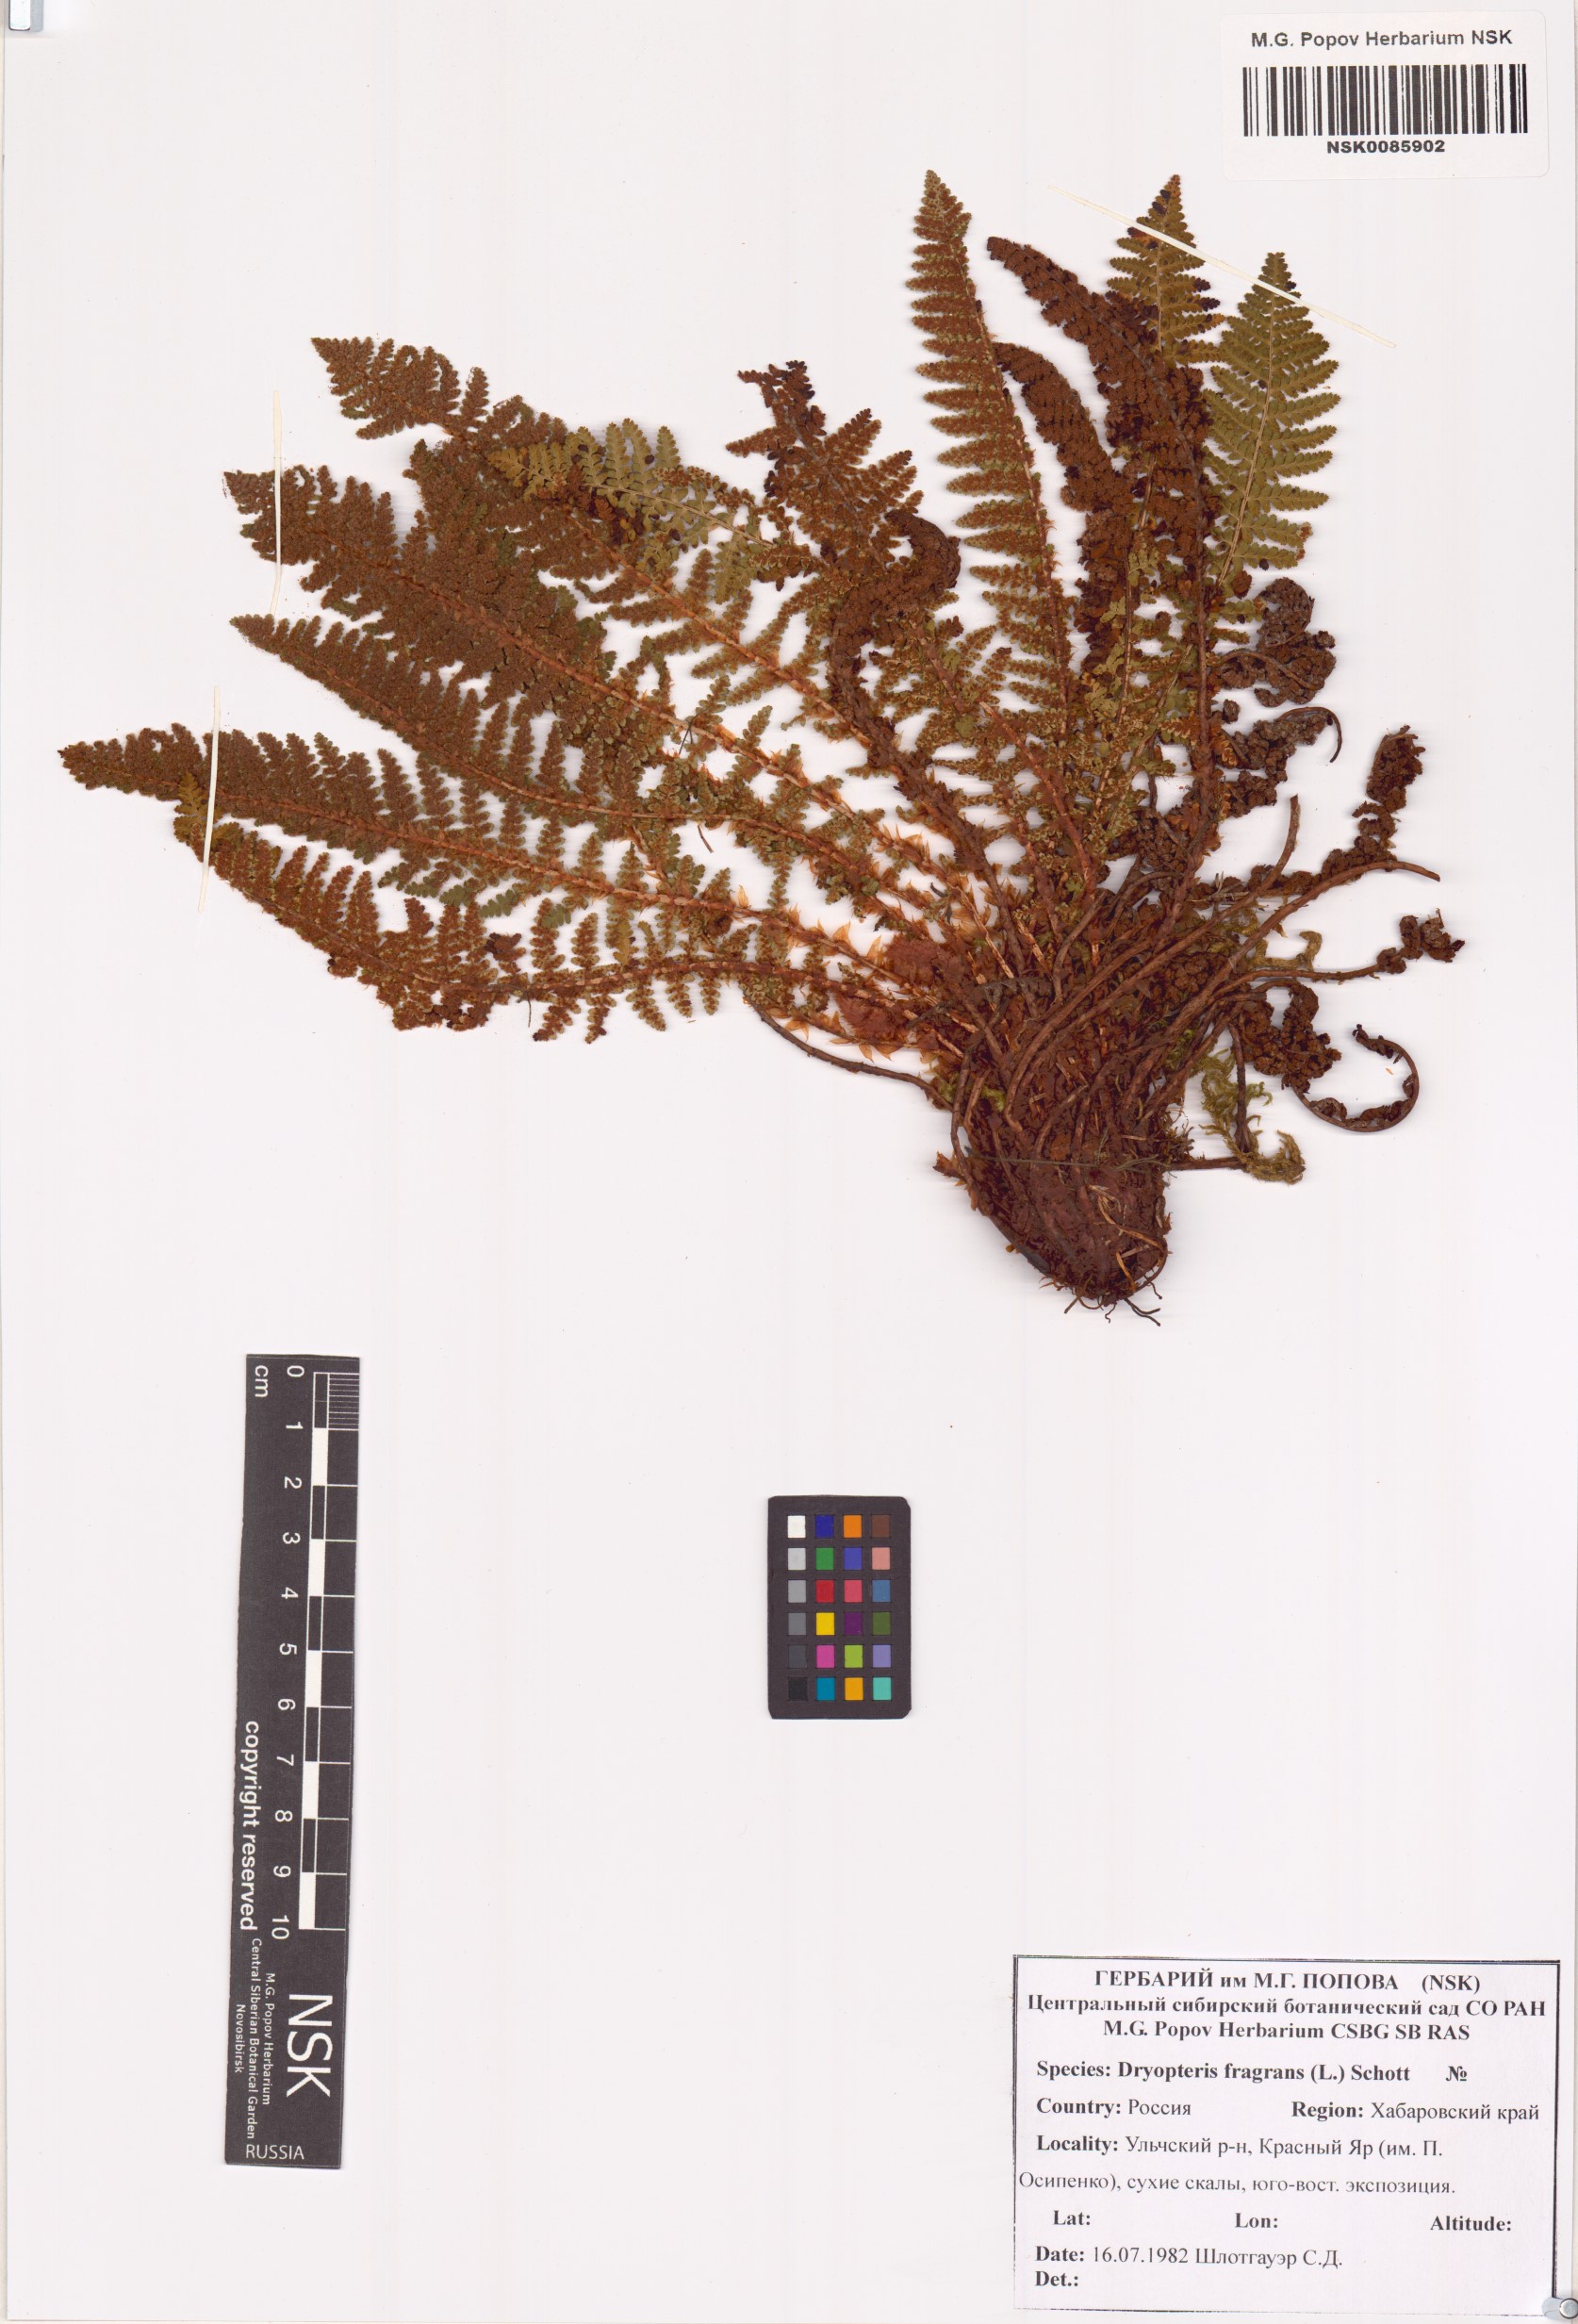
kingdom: Plantae
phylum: Tracheophyta
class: Polypodiopsida
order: Polypodiales
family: Dryopteridaceae
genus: Dryopteris
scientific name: Dryopteris fragrans
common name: Fragrant wood fern
